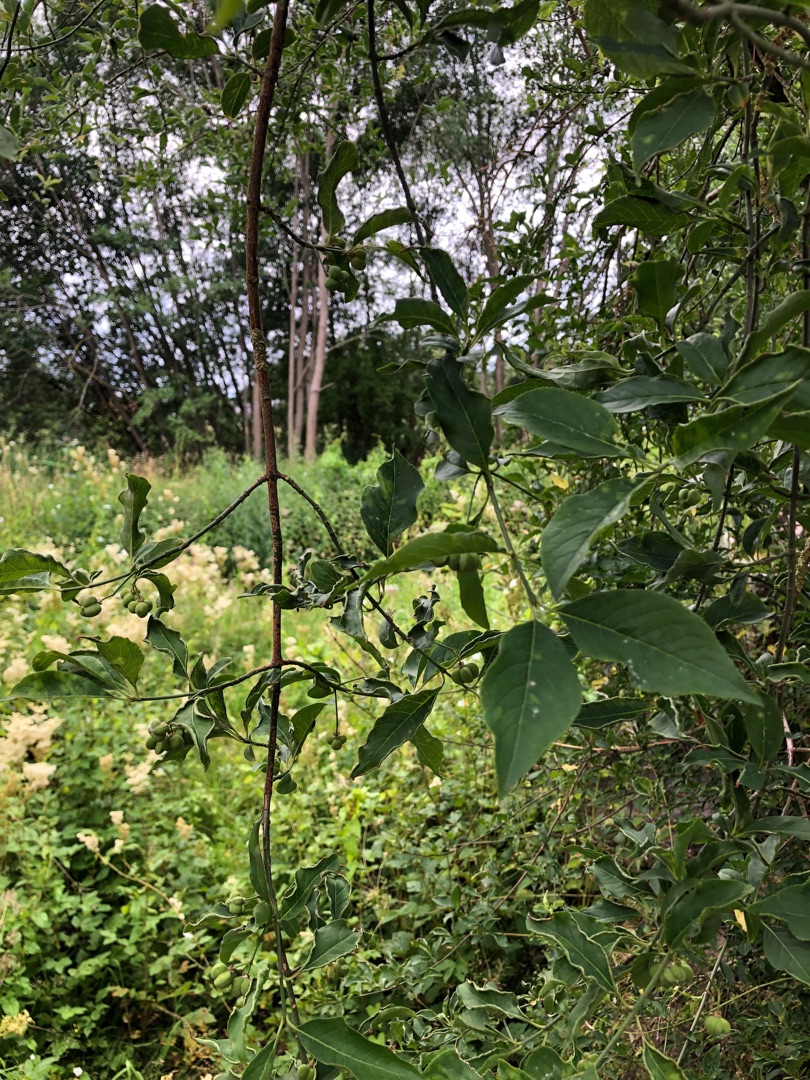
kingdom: Plantae
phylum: Tracheophyta
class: Magnoliopsida
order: Celastrales
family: Celastraceae
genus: Euonymus
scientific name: Euonymus europaeus
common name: Benved
